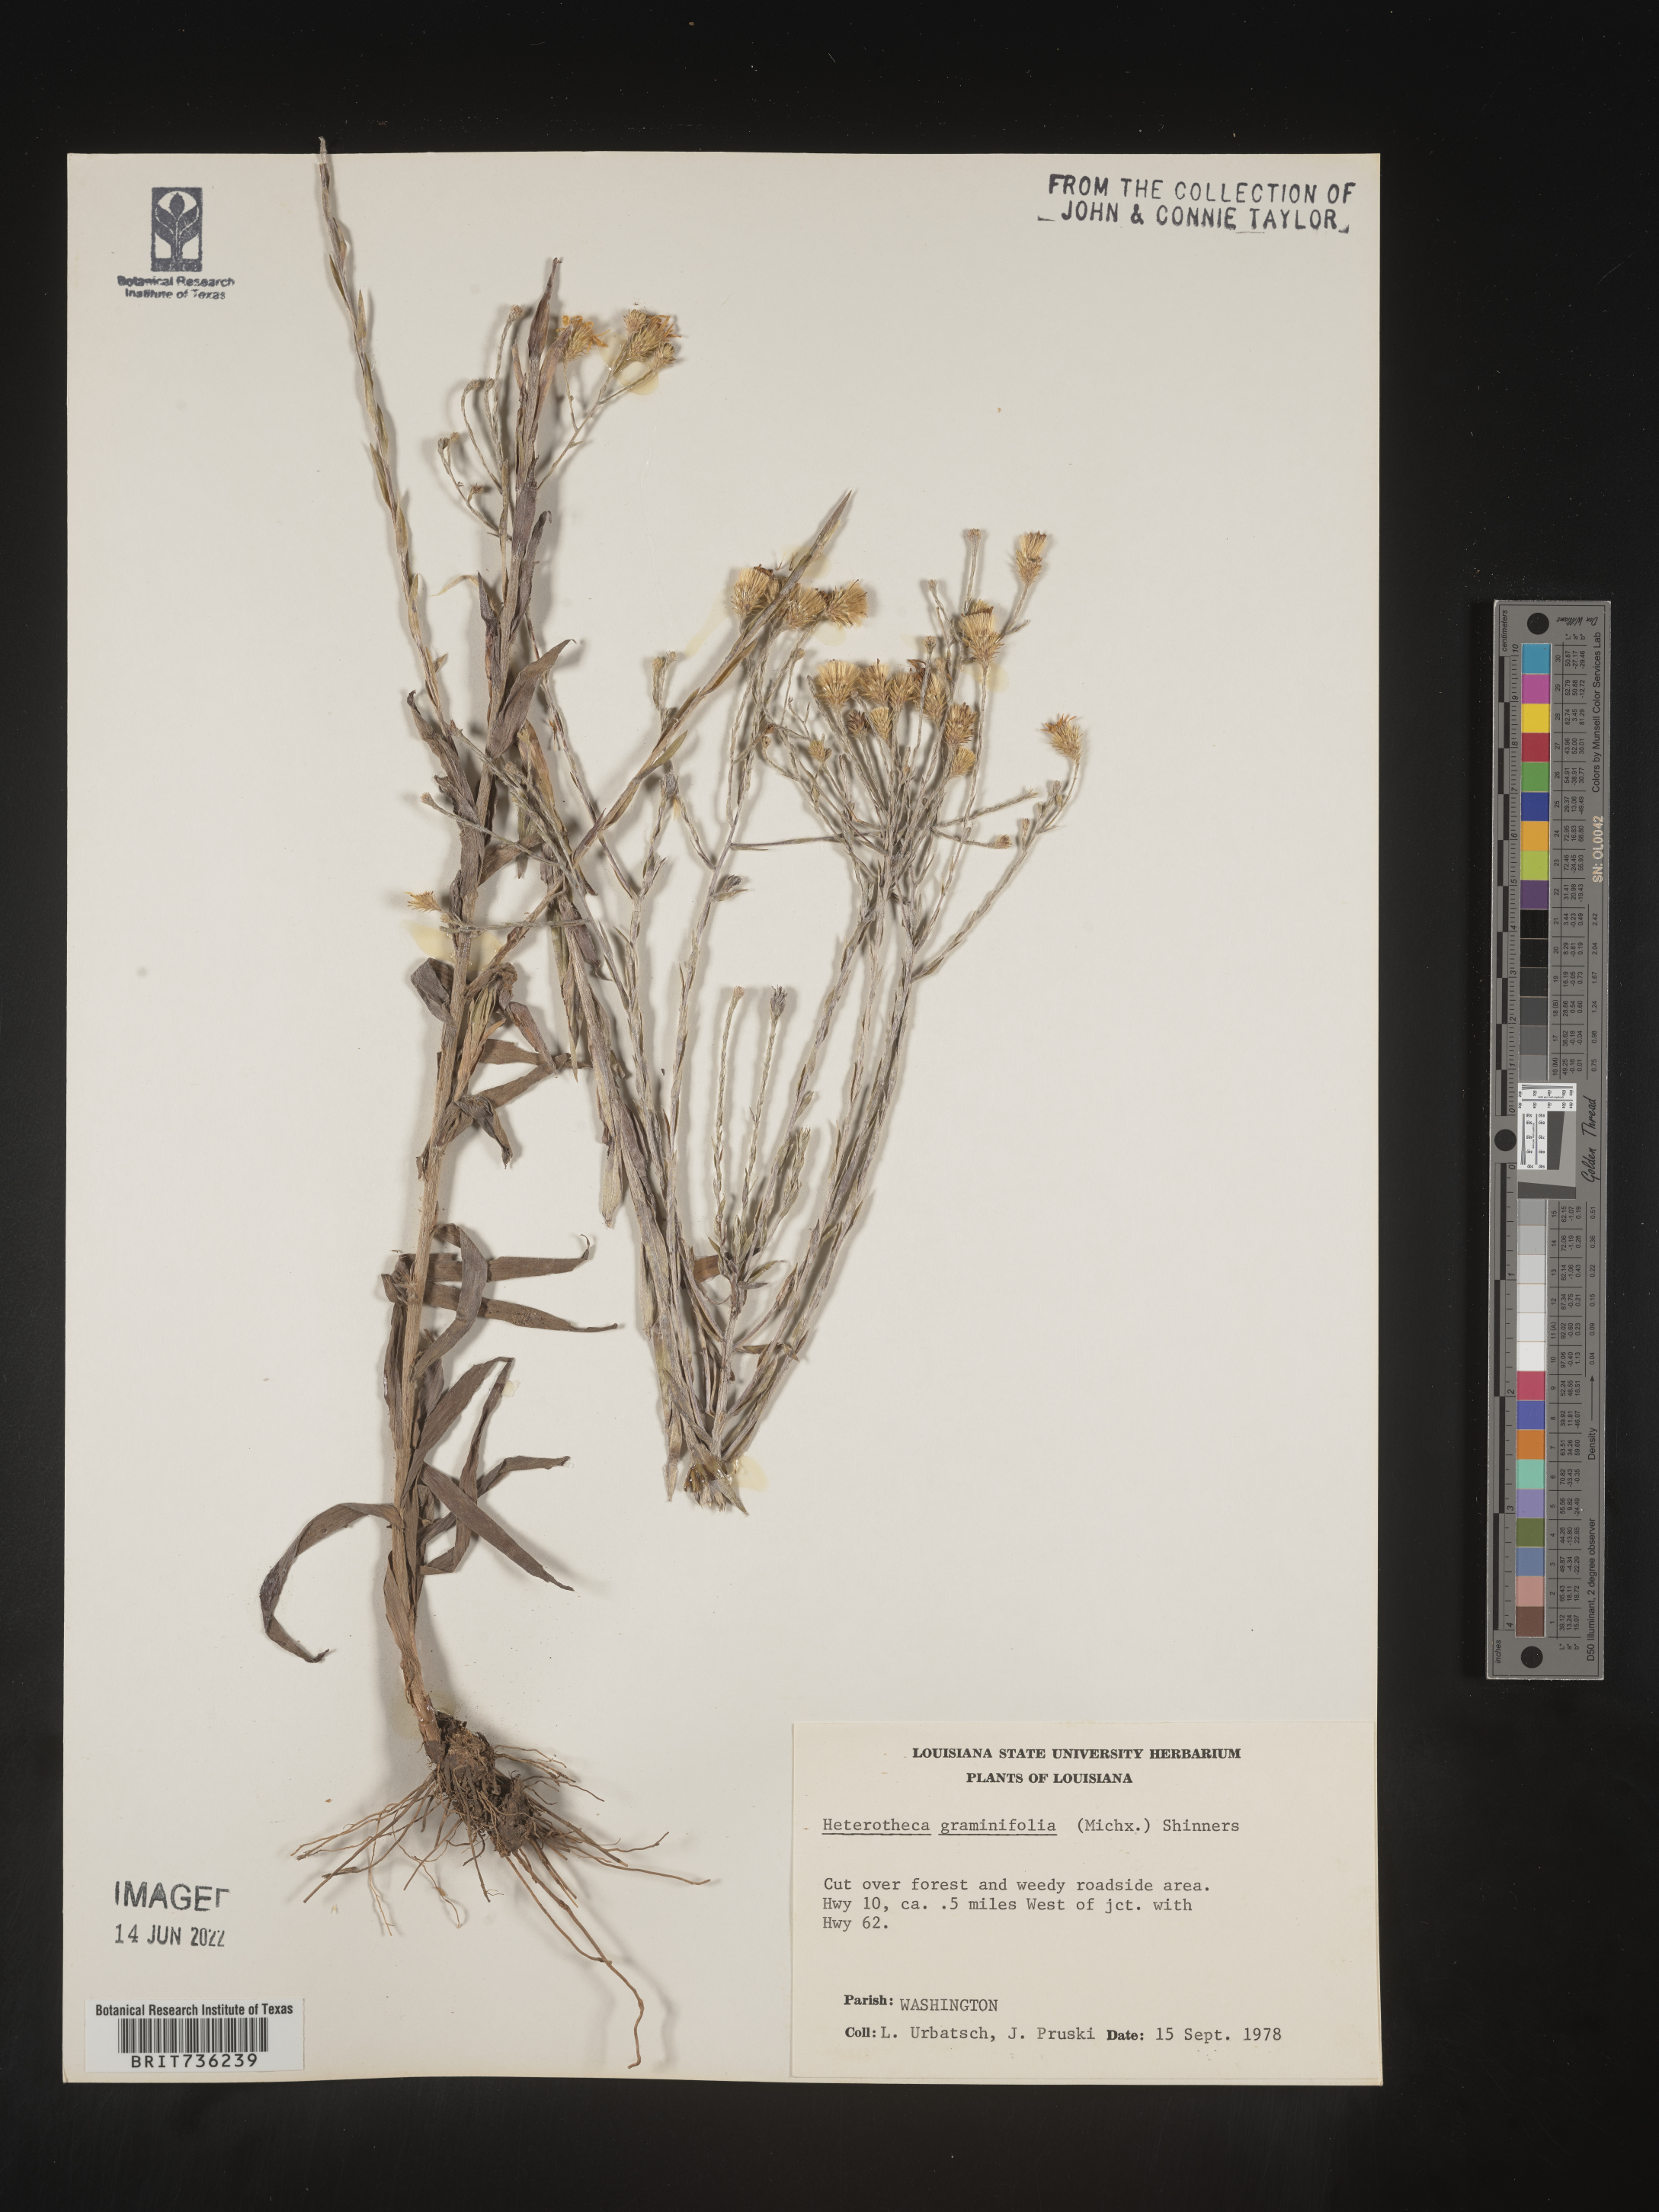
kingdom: Plantae
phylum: Tracheophyta
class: Magnoliopsida
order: Asterales
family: Asteraceae
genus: Pityopsis
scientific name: Pityopsis graminifolia
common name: Grass-leaf golden-aster
